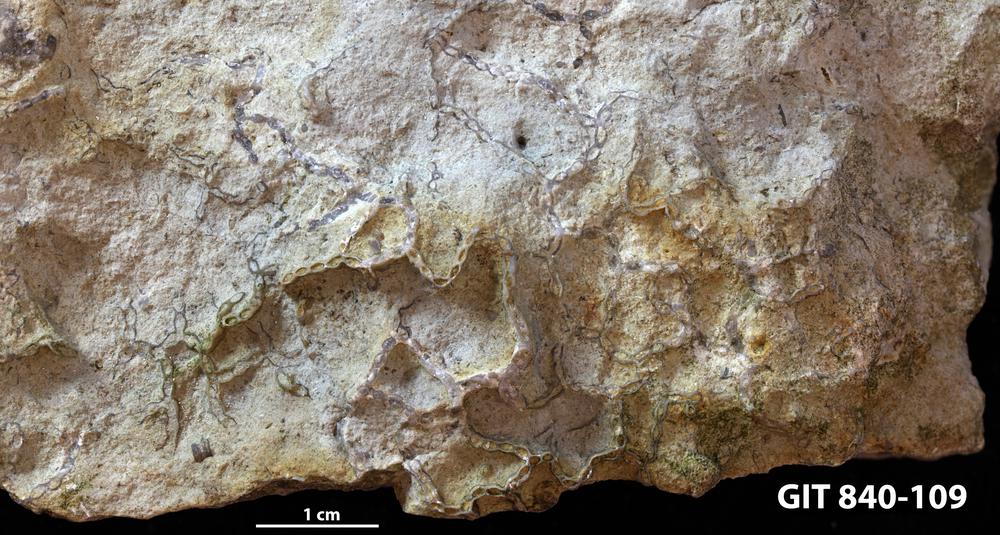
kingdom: Animalia
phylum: Cnidaria
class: Anthozoa
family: Cateniporidae
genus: Catenipora
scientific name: Catenipora
